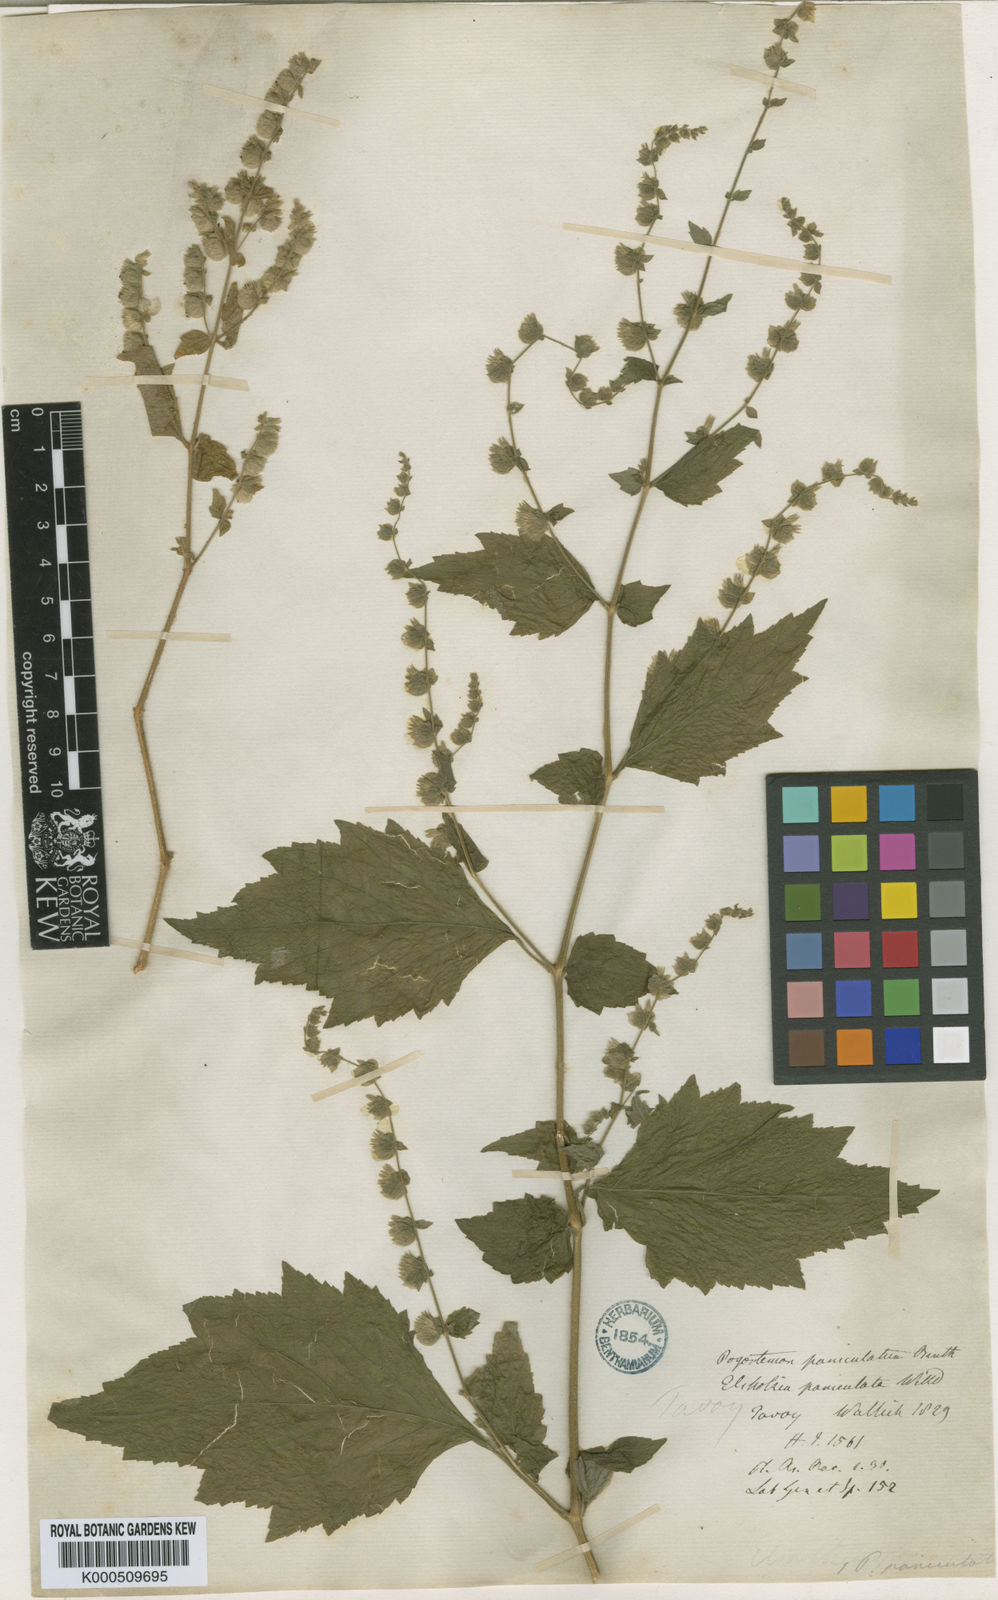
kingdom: Plantae
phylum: Tracheophyta
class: Magnoliopsida
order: Lamiales
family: Lamiaceae
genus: Pogostemon
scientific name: Pogostemon paniculatus
